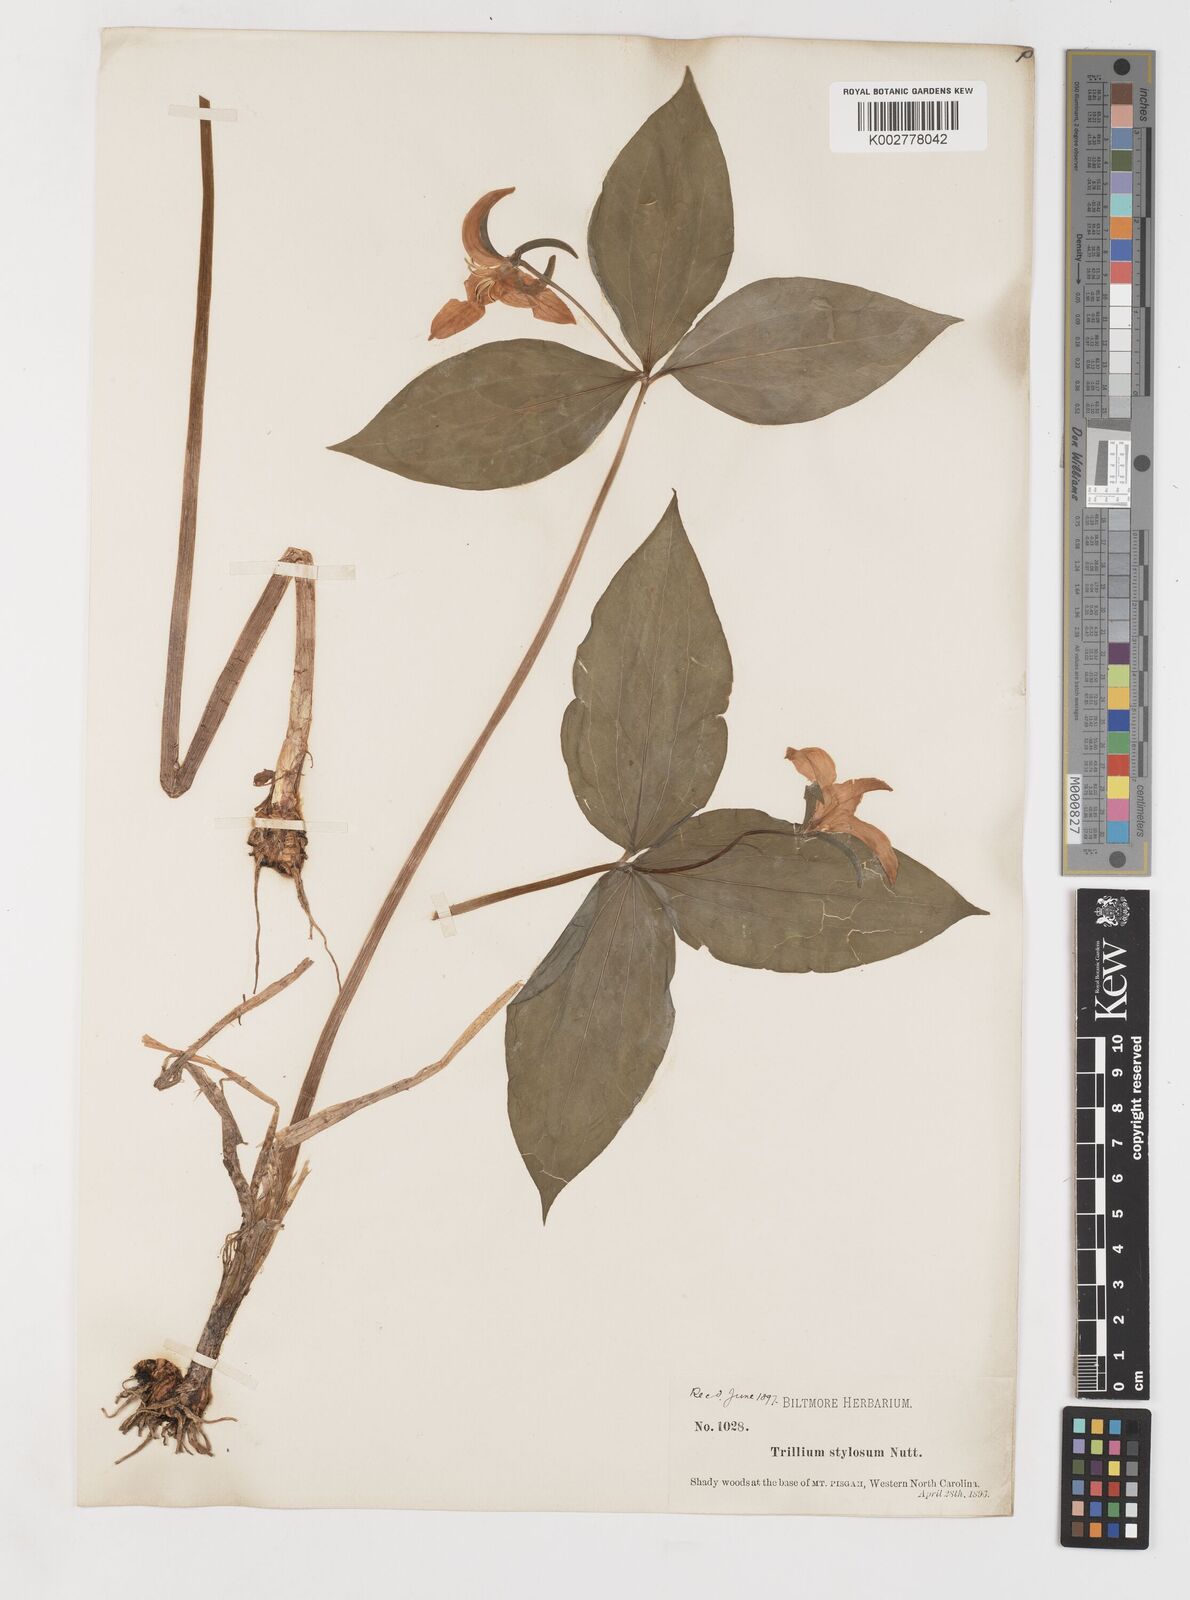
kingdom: Plantae
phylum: Tracheophyta
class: Liliopsida
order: Liliales
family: Melanthiaceae
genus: Trillium
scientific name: Trillium catesbaei
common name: Bashful trillium
